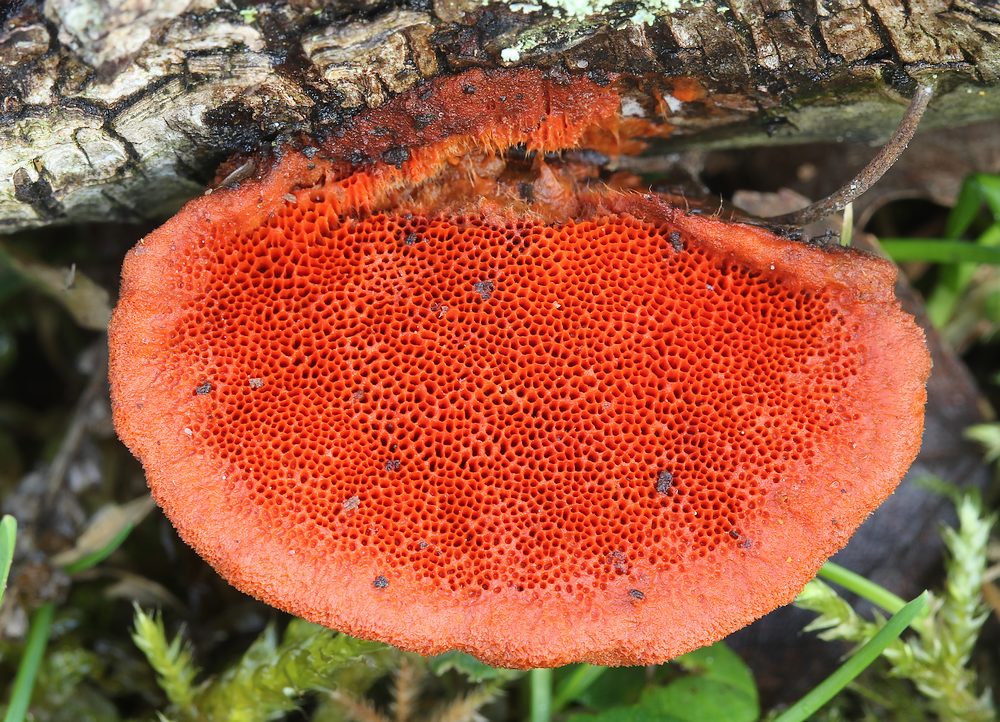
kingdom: Fungi
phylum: Basidiomycota
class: Agaricomycetes
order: Polyporales
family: Polyporaceae
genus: Trametes
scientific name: Trametes cinnabarina
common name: cinnoberporesvamp
